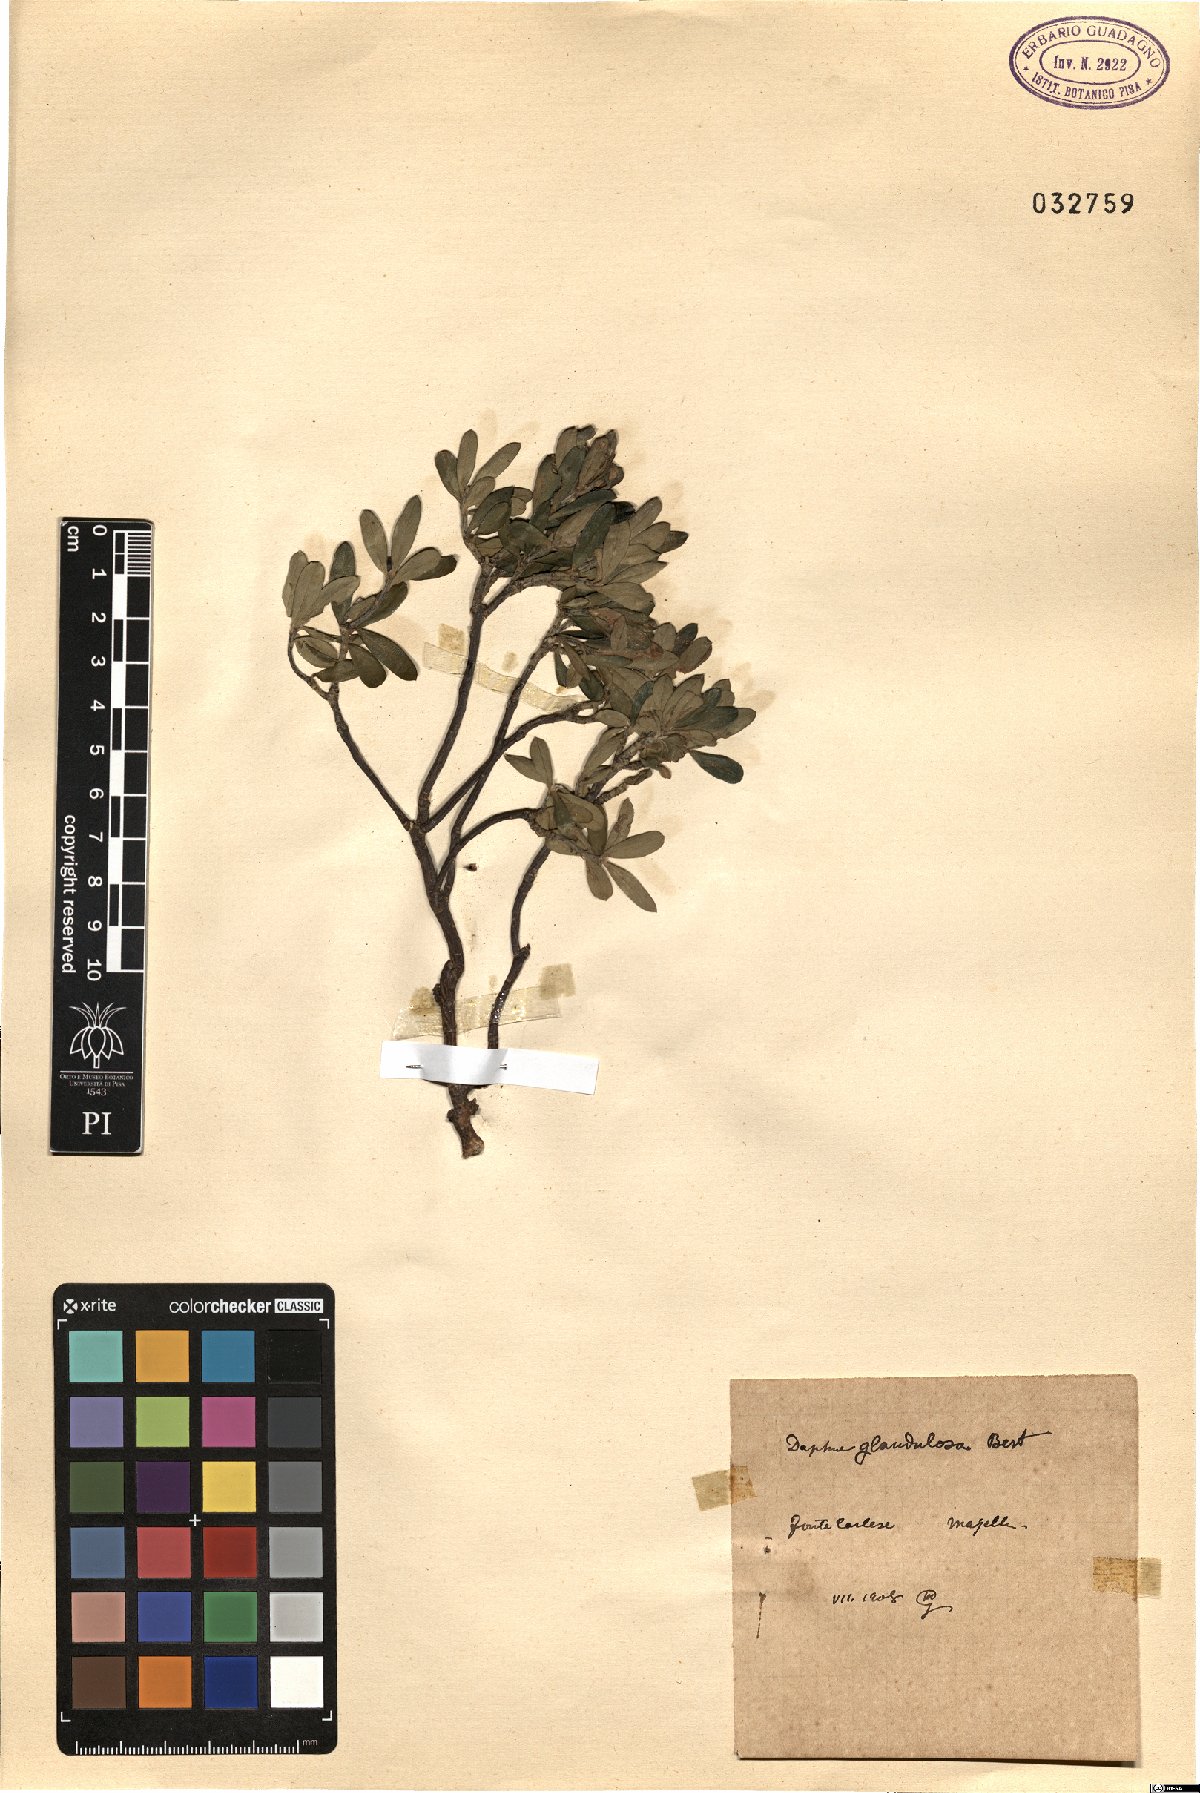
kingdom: Plantae
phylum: Tracheophyta
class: Magnoliopsida
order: Malvales
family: Thymelaeaceae
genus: Daphne
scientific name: Daphne oleoides
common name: Spurge-olive
